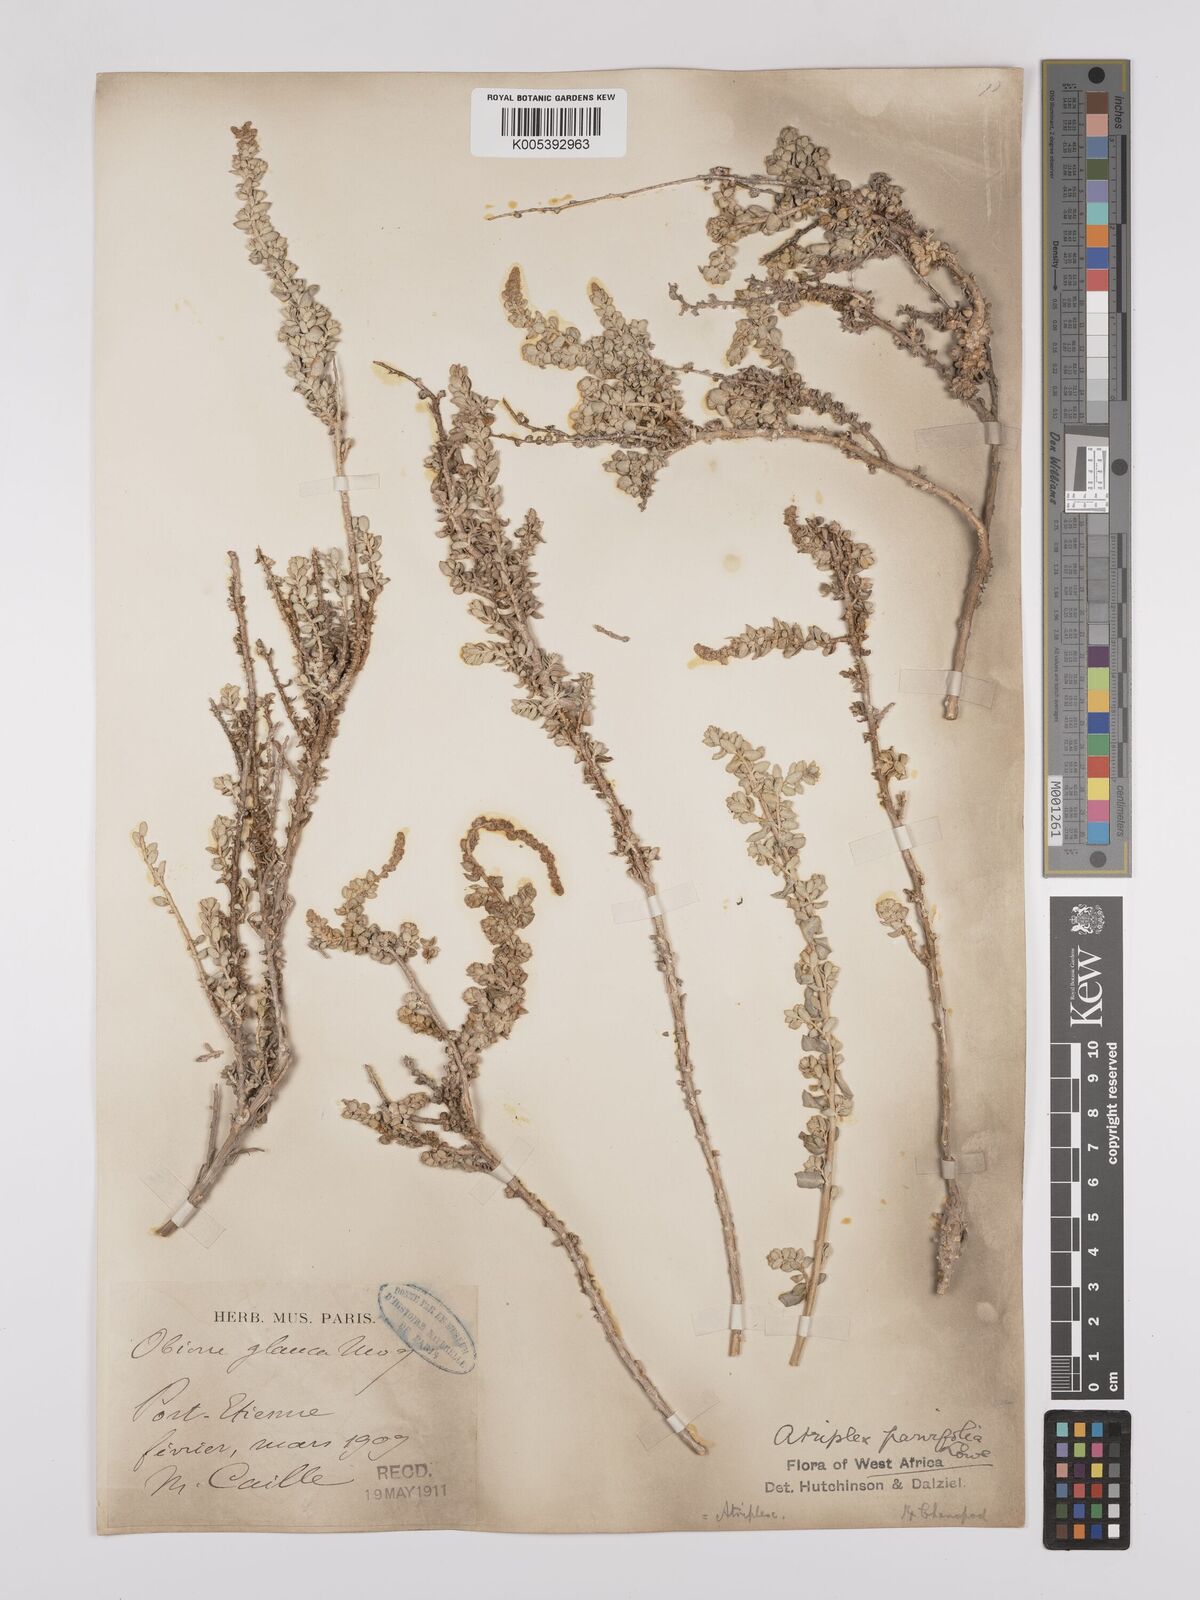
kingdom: Plantae
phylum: Tracheophyta
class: Magnoliopsida
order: Caryophyllales
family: Amaranthaceae
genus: Atriplex
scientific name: Atriplex
